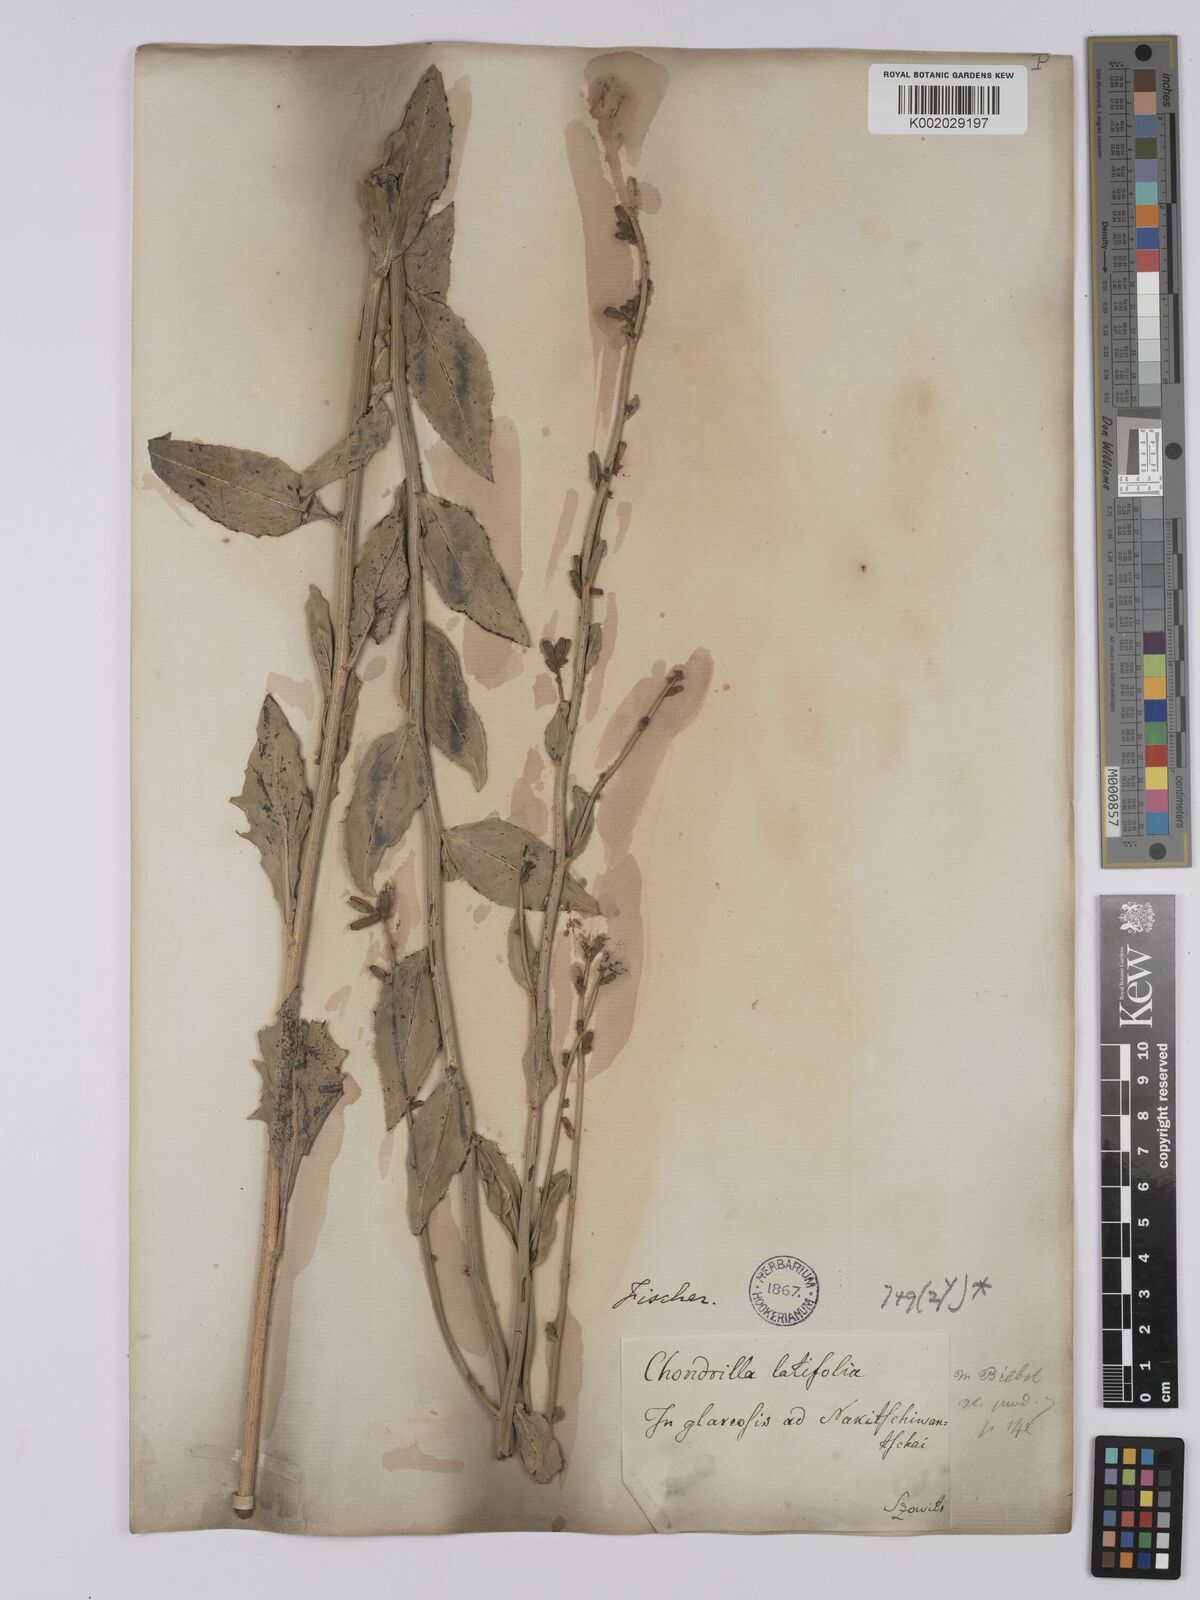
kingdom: Plantae
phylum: Tracheophyta
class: Magnoliopsida
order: Asterales
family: Asteraceae
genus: Chondrilla
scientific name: Chondrilla latifolia
